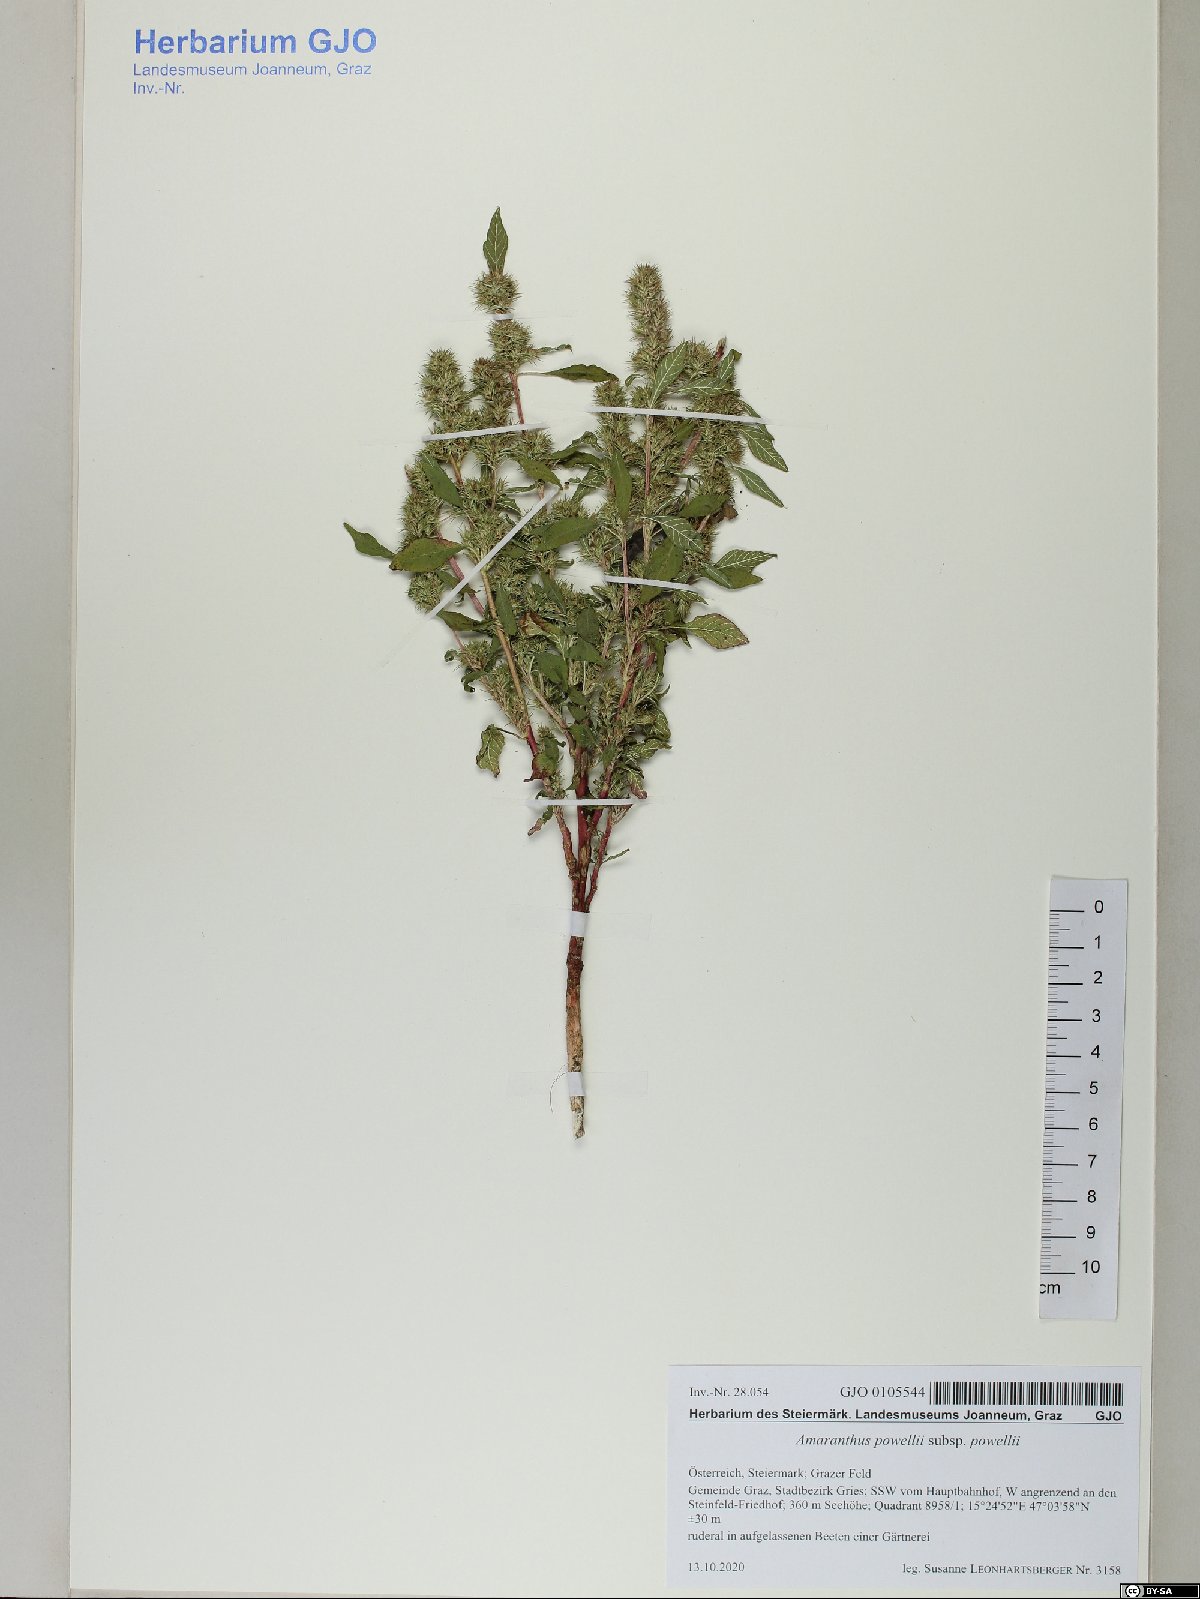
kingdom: Plantae
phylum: Tracheophyta
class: Magnoliopsida
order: Caryophyllales
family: Amaranthaceae
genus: Amaranthus
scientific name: Amaranthus powellii
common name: Powell's amaranth
